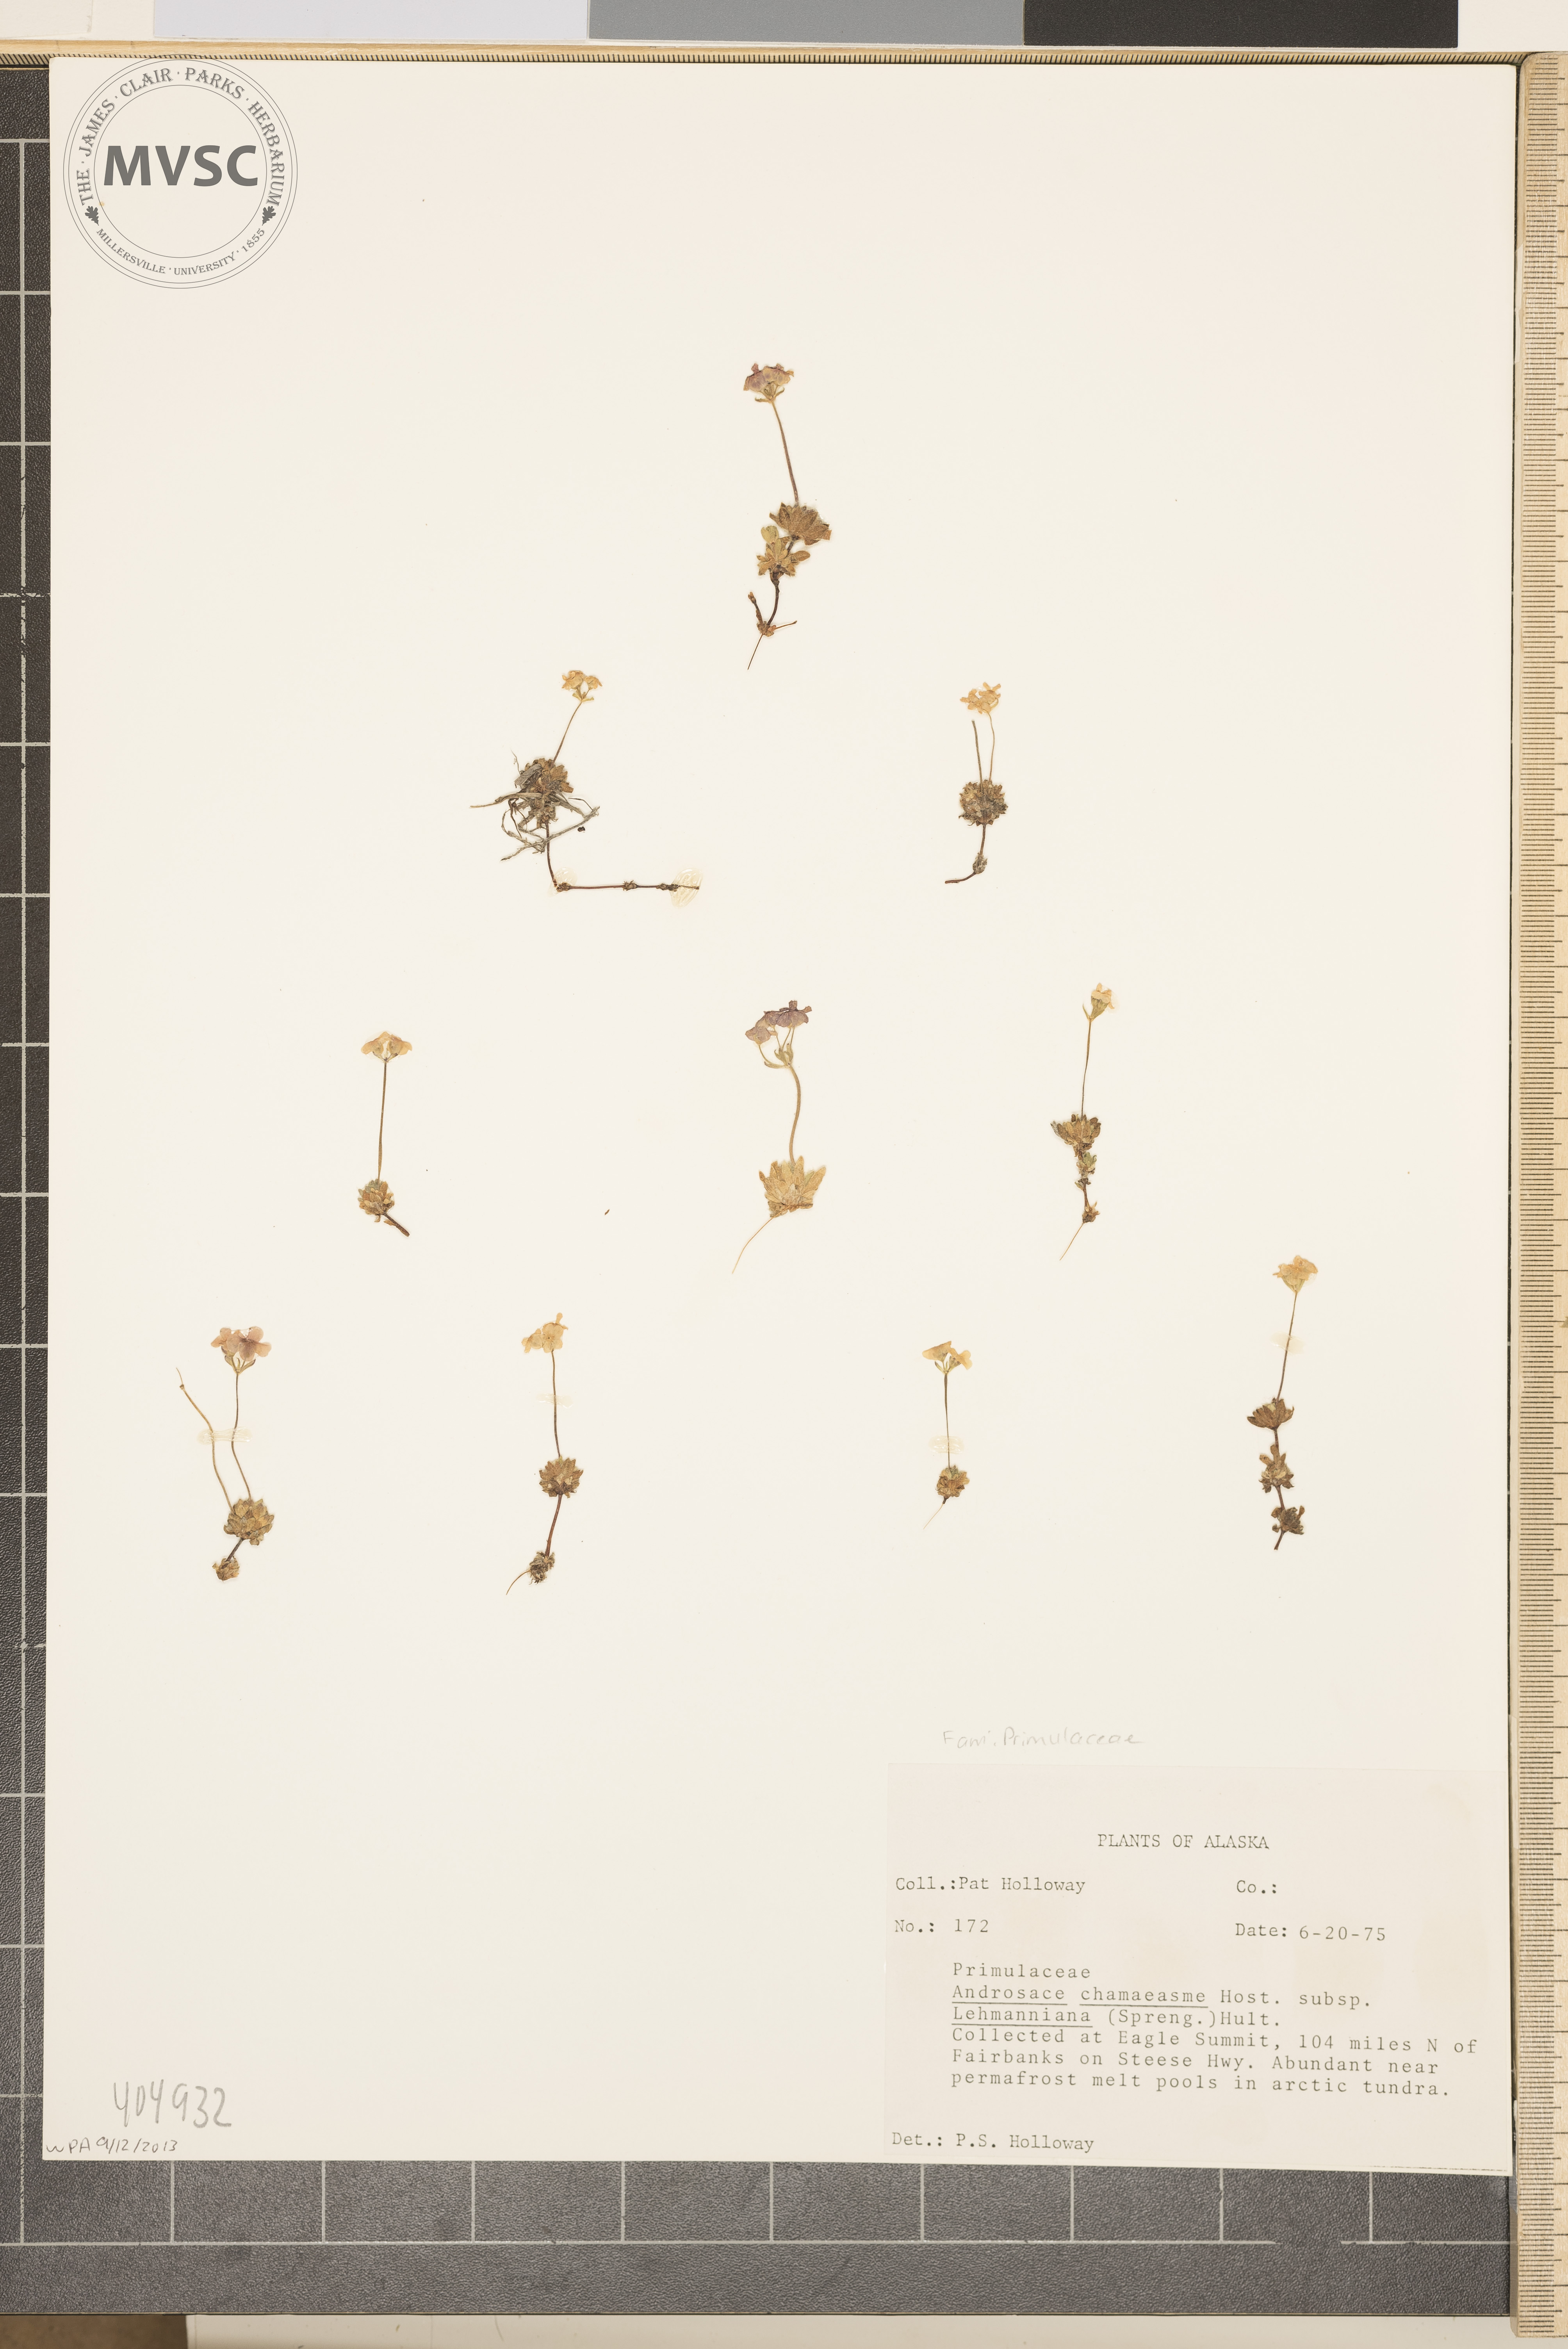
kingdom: Plantae
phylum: Tracheophyta
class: Magnoliopsida
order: Ericales
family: Primulaceae
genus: Androsace
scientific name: Androsace chamaejasme
